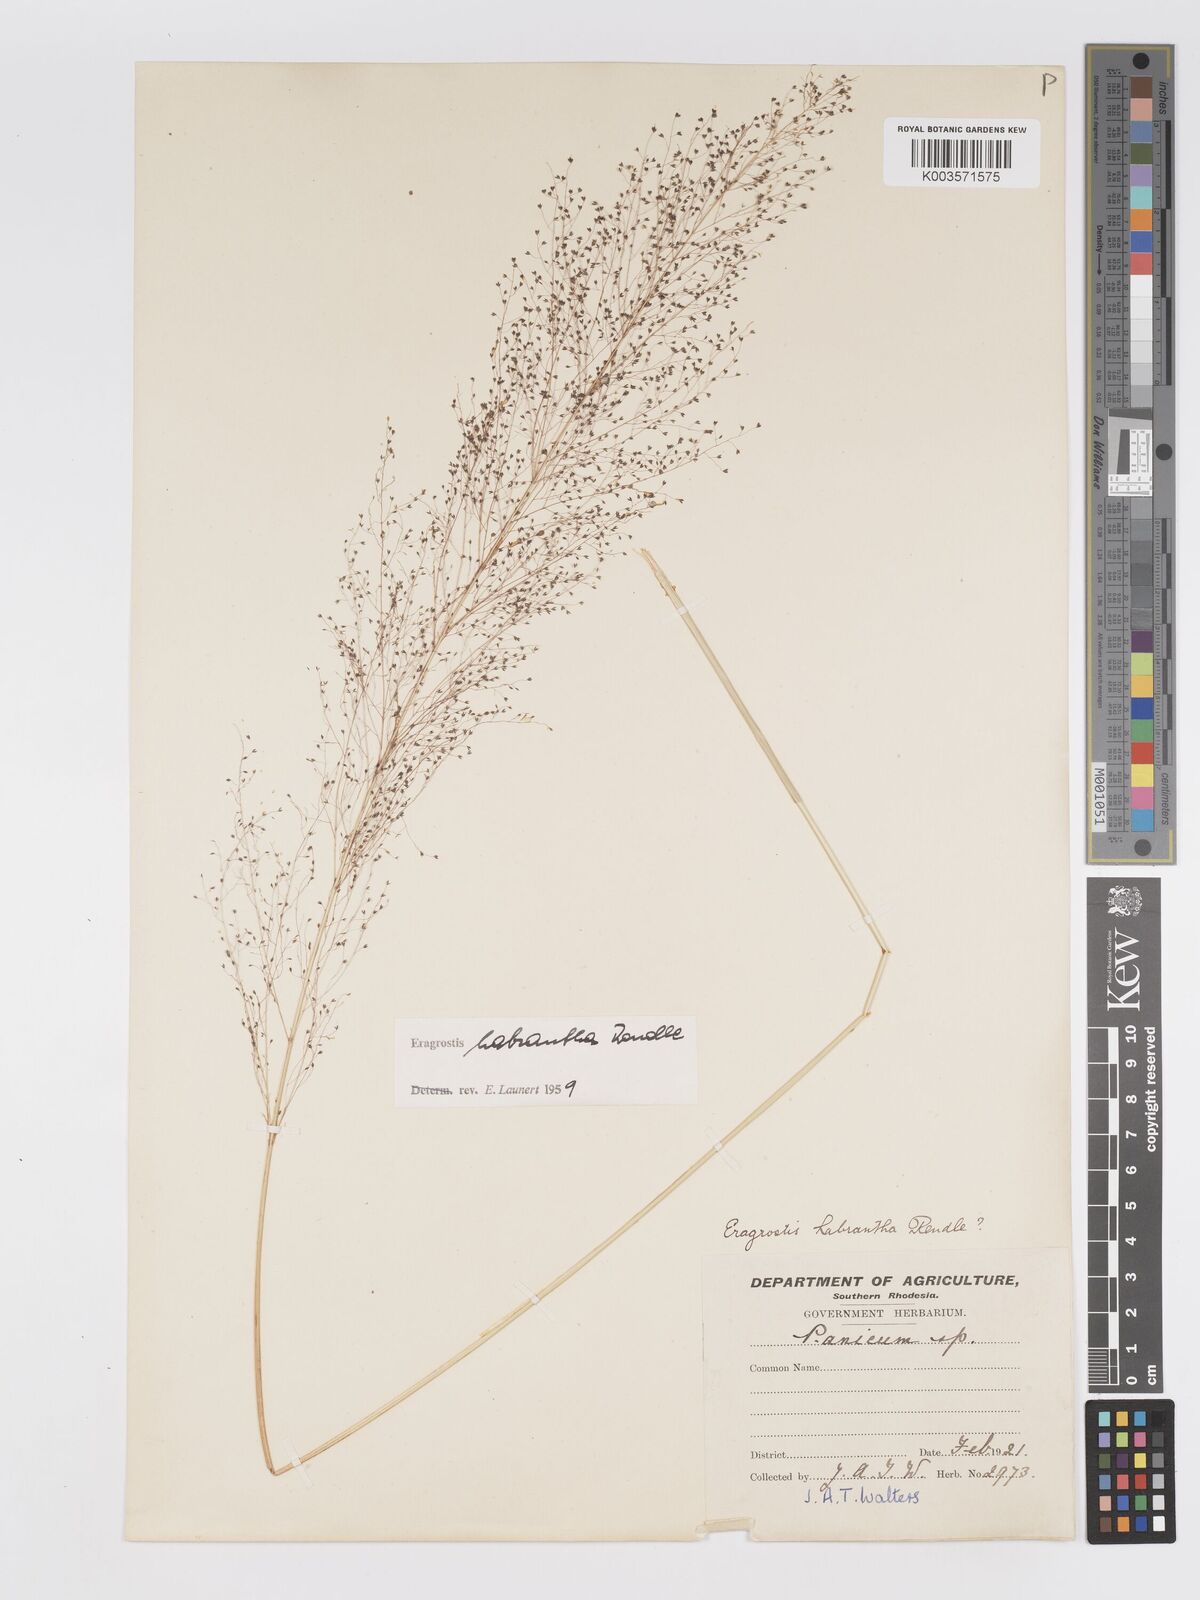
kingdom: Plantae
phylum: Tracheophyta
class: Liliopsida
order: Poales
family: Poaceae
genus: Eragrostis
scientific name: Eragrostis habrantha
